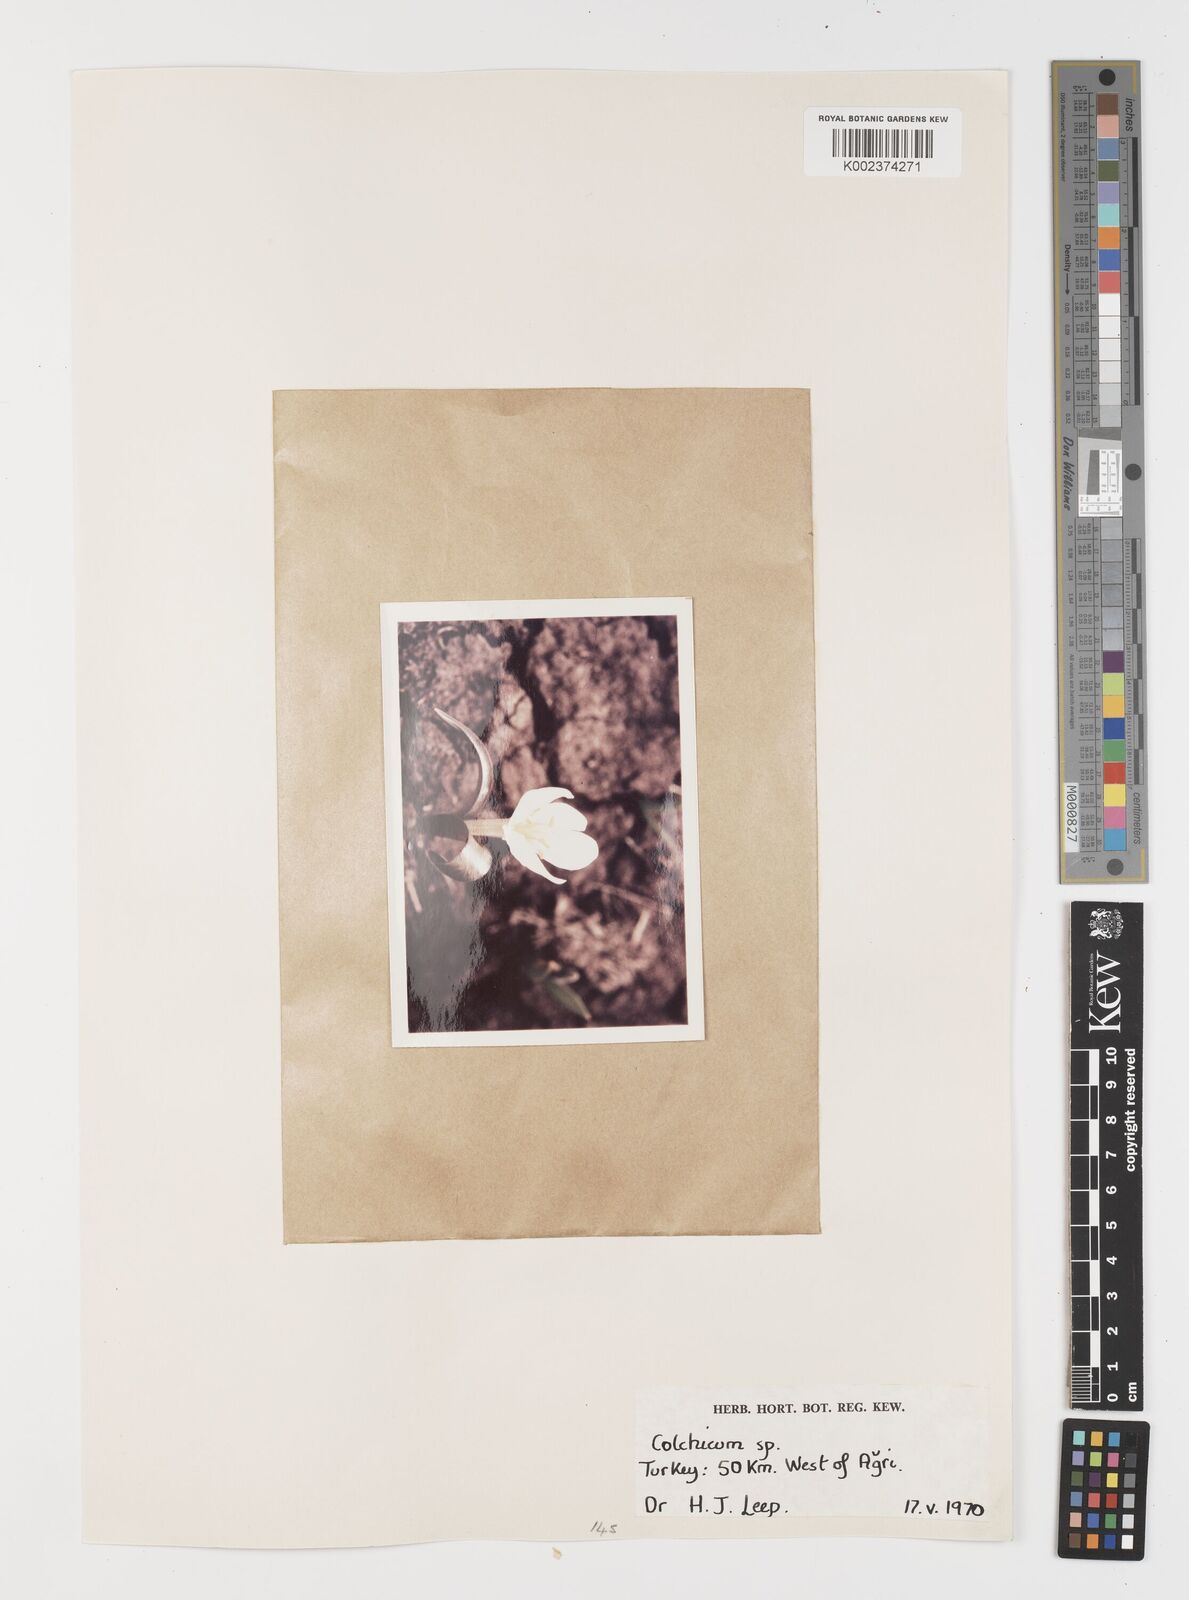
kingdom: Plantae
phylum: Tracheophyta
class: Liliopsida
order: Liliales
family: Colchicaceae
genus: Colchicum
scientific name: Colchicum
